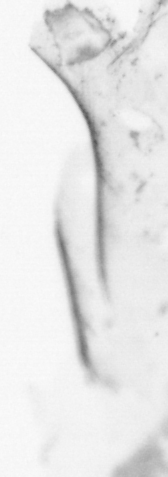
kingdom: Animalia
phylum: Chordata
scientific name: Chordata
